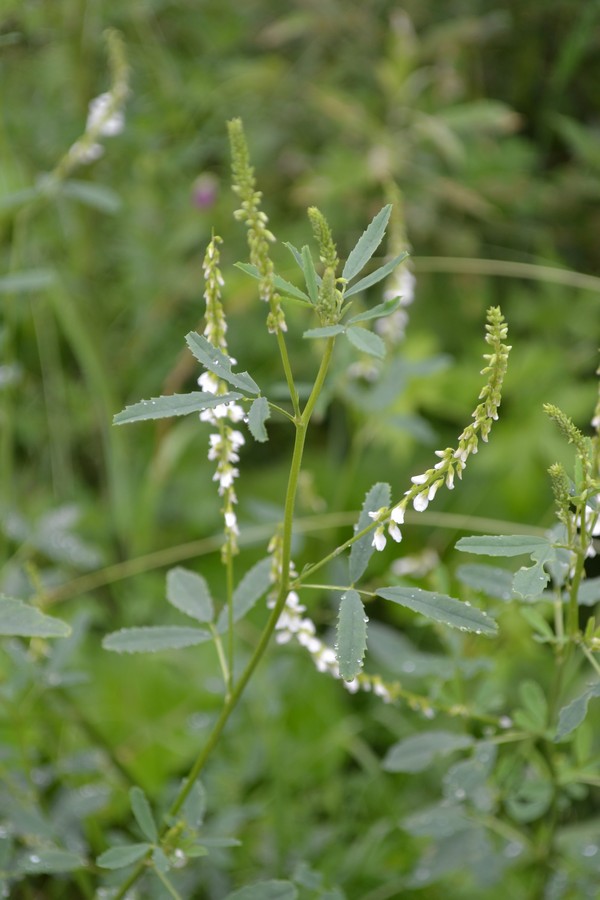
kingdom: Plantae
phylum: Tracheophyta
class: Magnoliopsida
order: Fabales
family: Fabaceae
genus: Melilotus
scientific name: Melilotus albus
